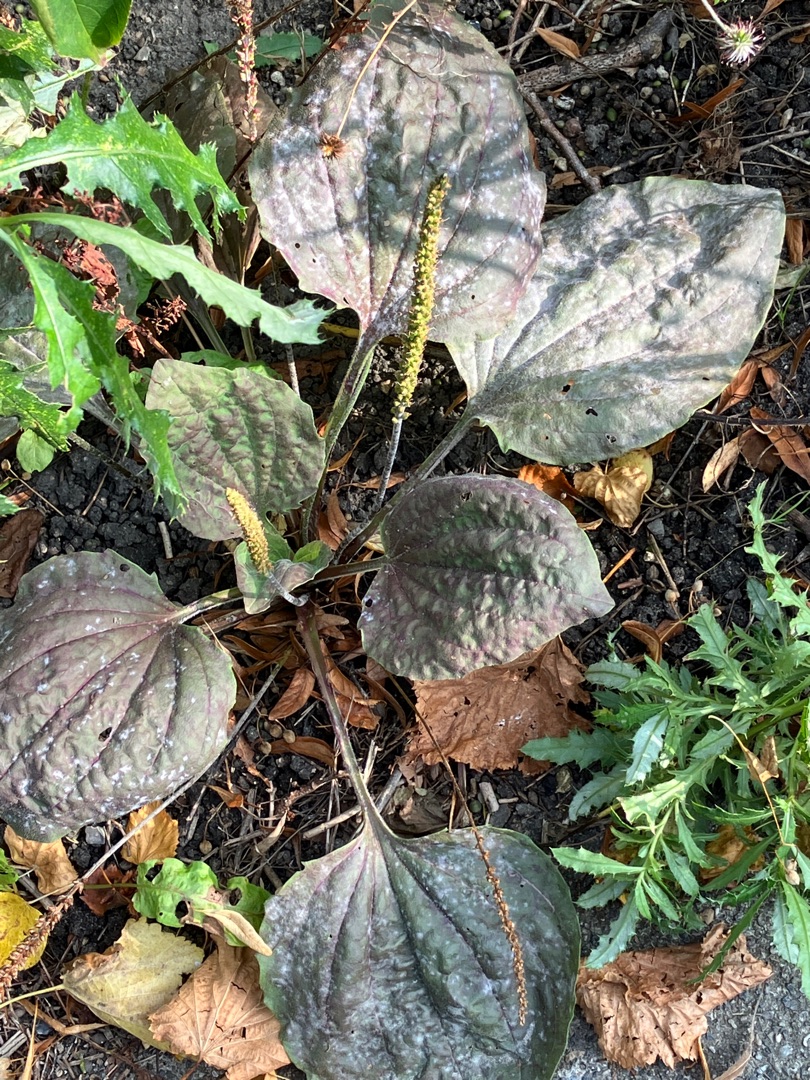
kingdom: Plantae
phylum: Tracheophyta
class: Magnoliopsida
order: Lamiales
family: Plantaginaceae
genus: Plantago
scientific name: Plantago major
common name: Glat vejbred (underart)
